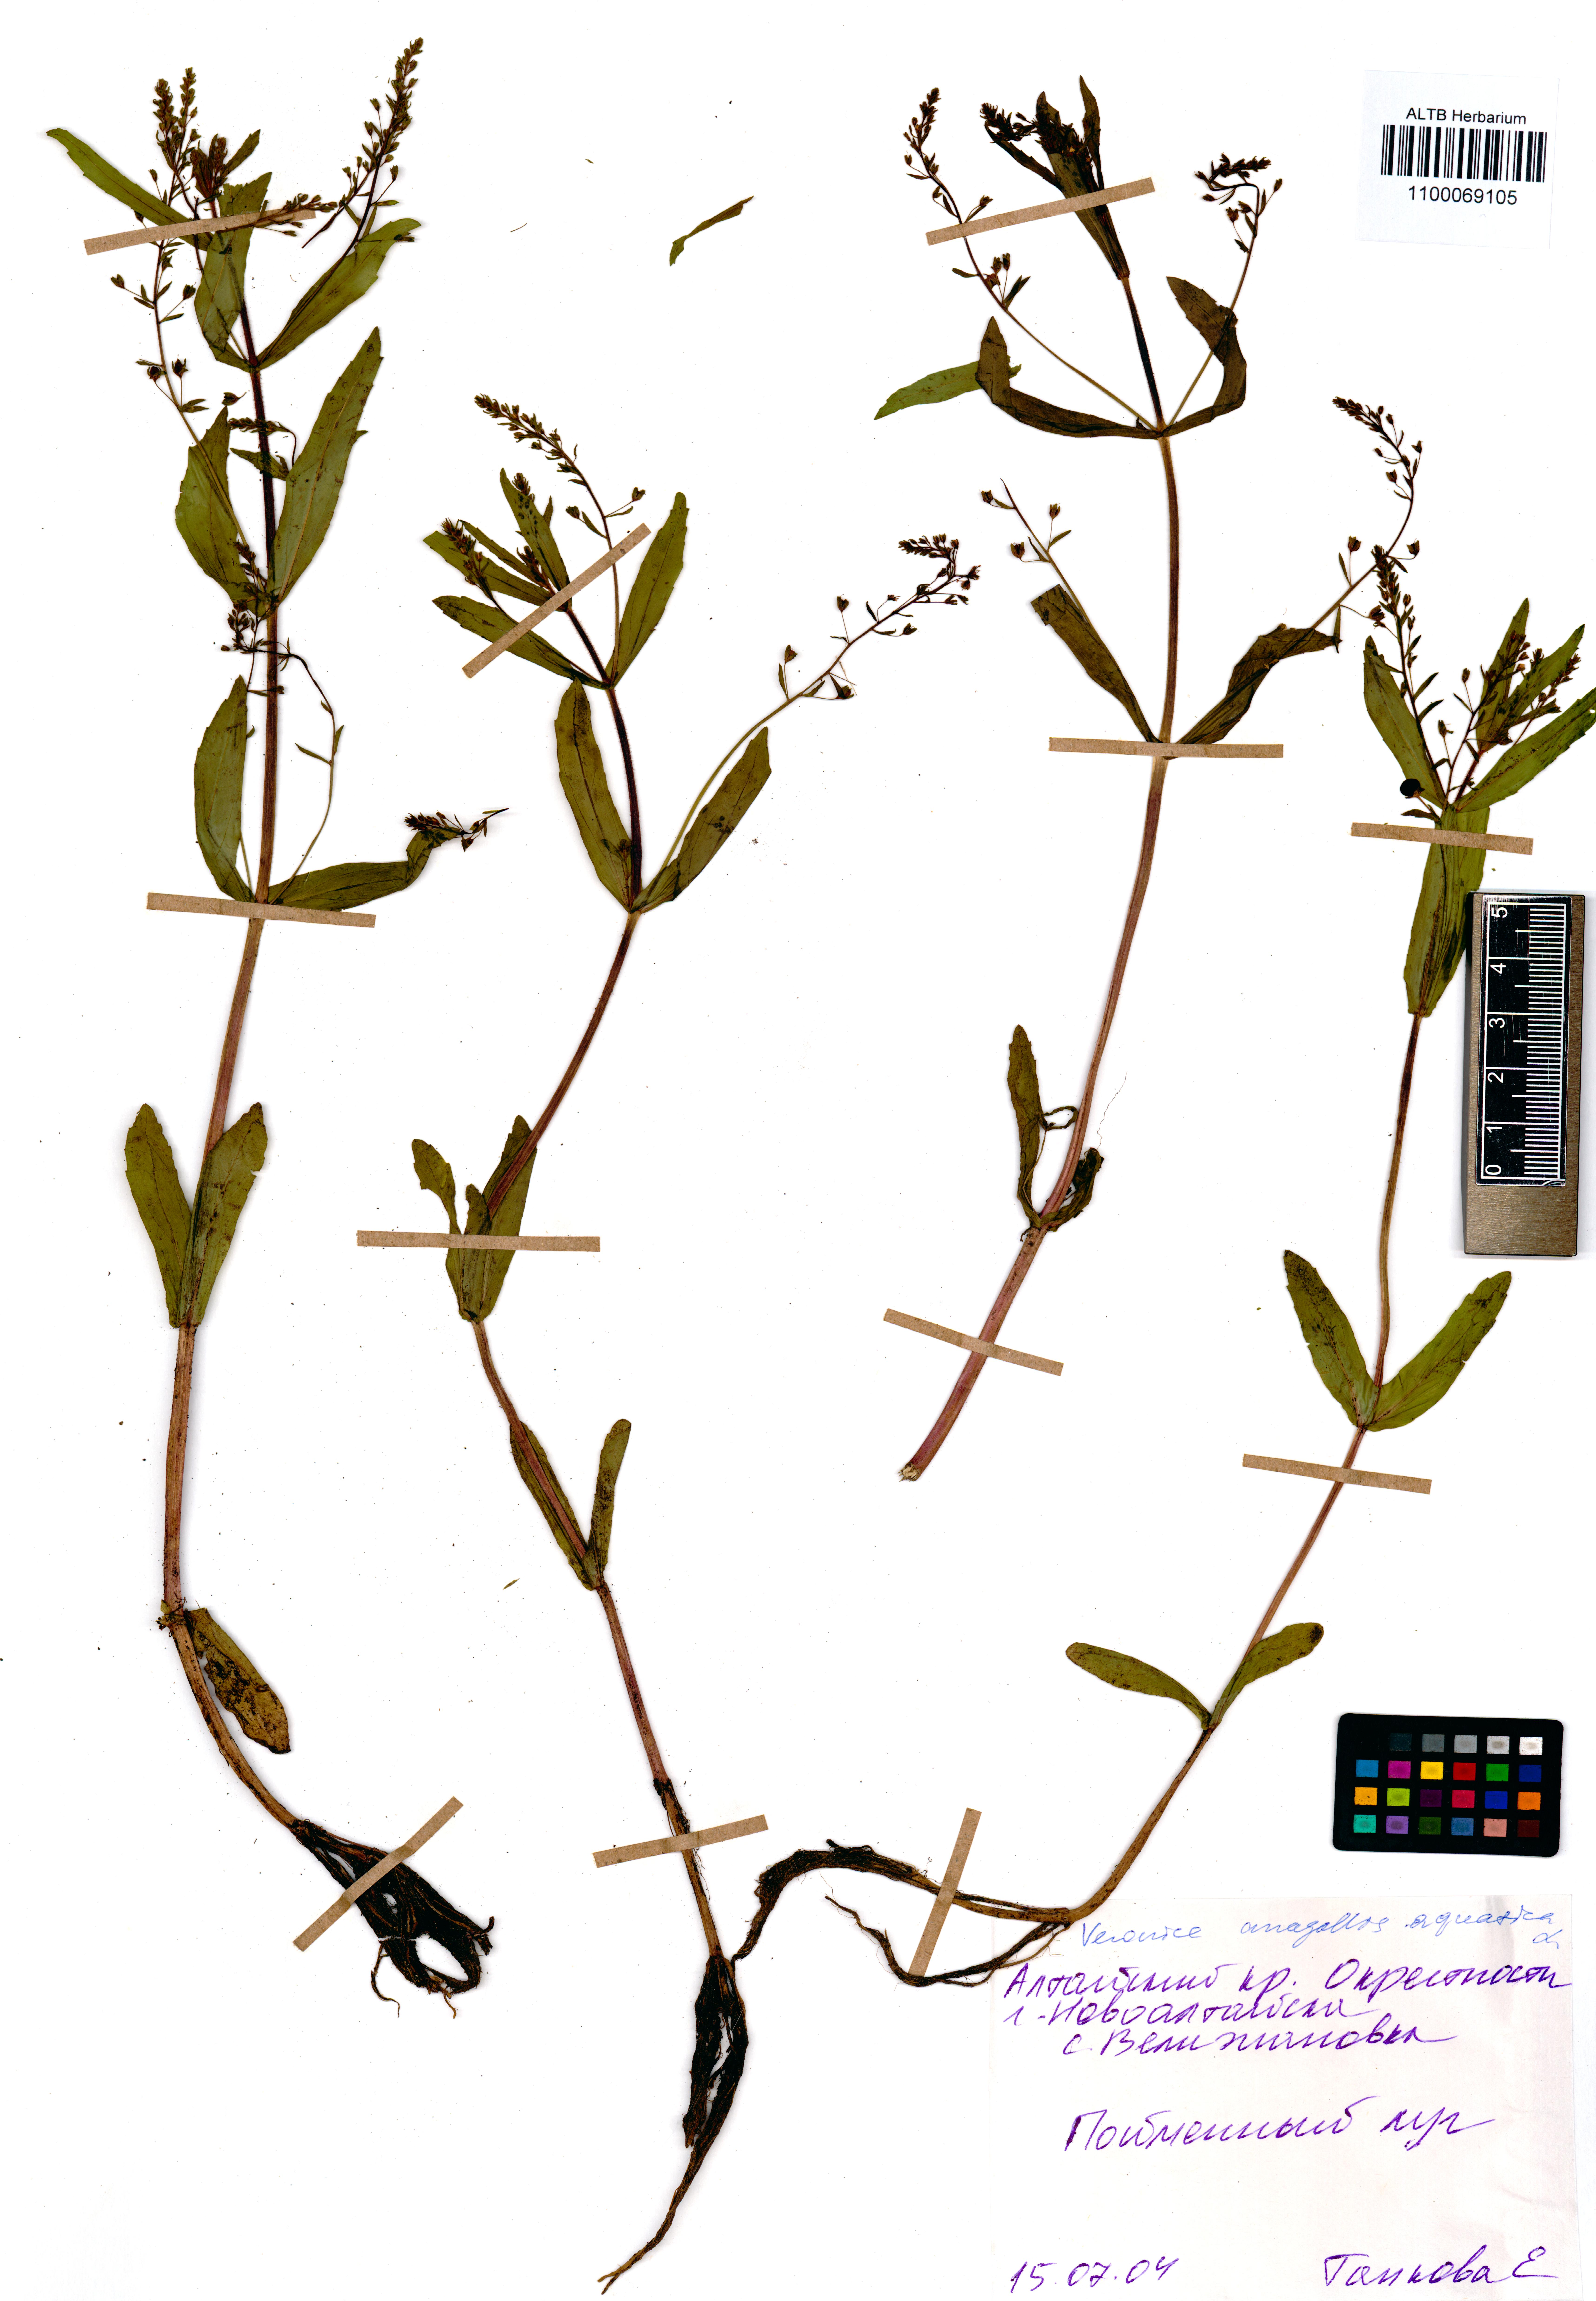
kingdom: Plantae
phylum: Tracheophyta
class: Magnoliopsida
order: Lamiales
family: Plantaginaceae
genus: Veronica
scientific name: Veronica anagallis-aquatica
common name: Water speedwell
